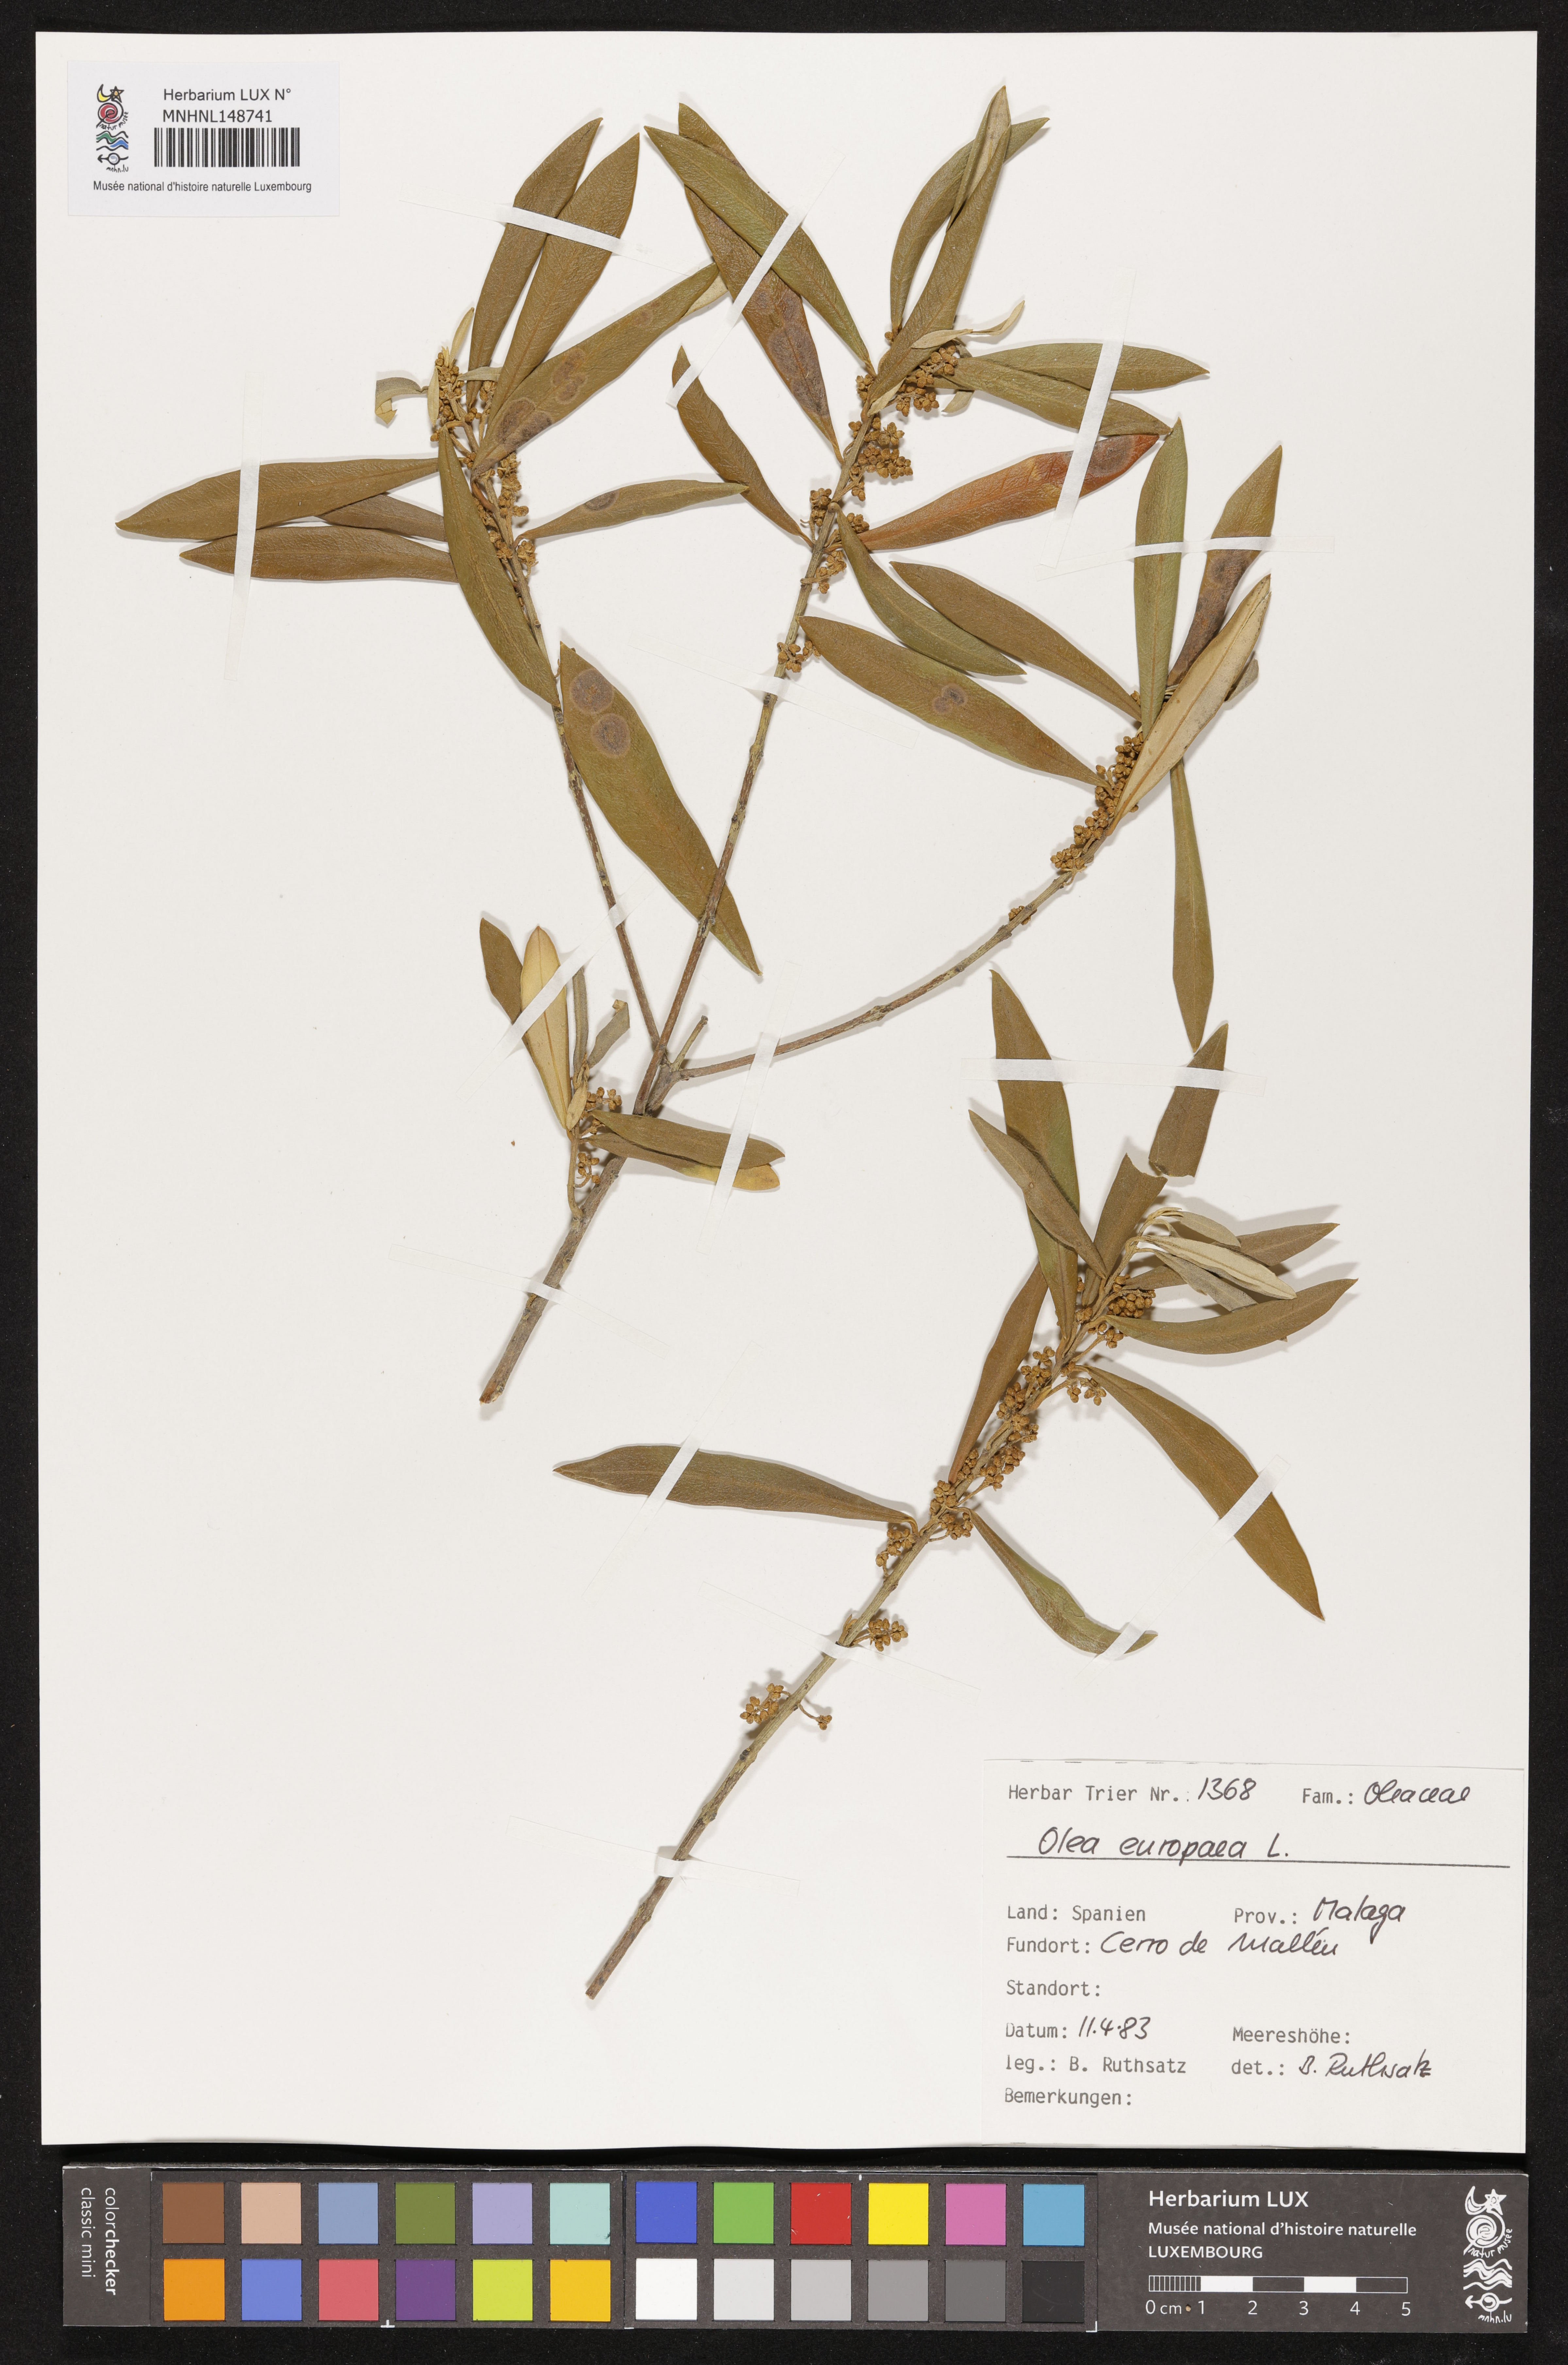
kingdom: Plantae
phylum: Tracheophyta
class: Magnoliopsida
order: Lamiales
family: Oleaceae
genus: Olea
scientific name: Olea europaea
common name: Olive
